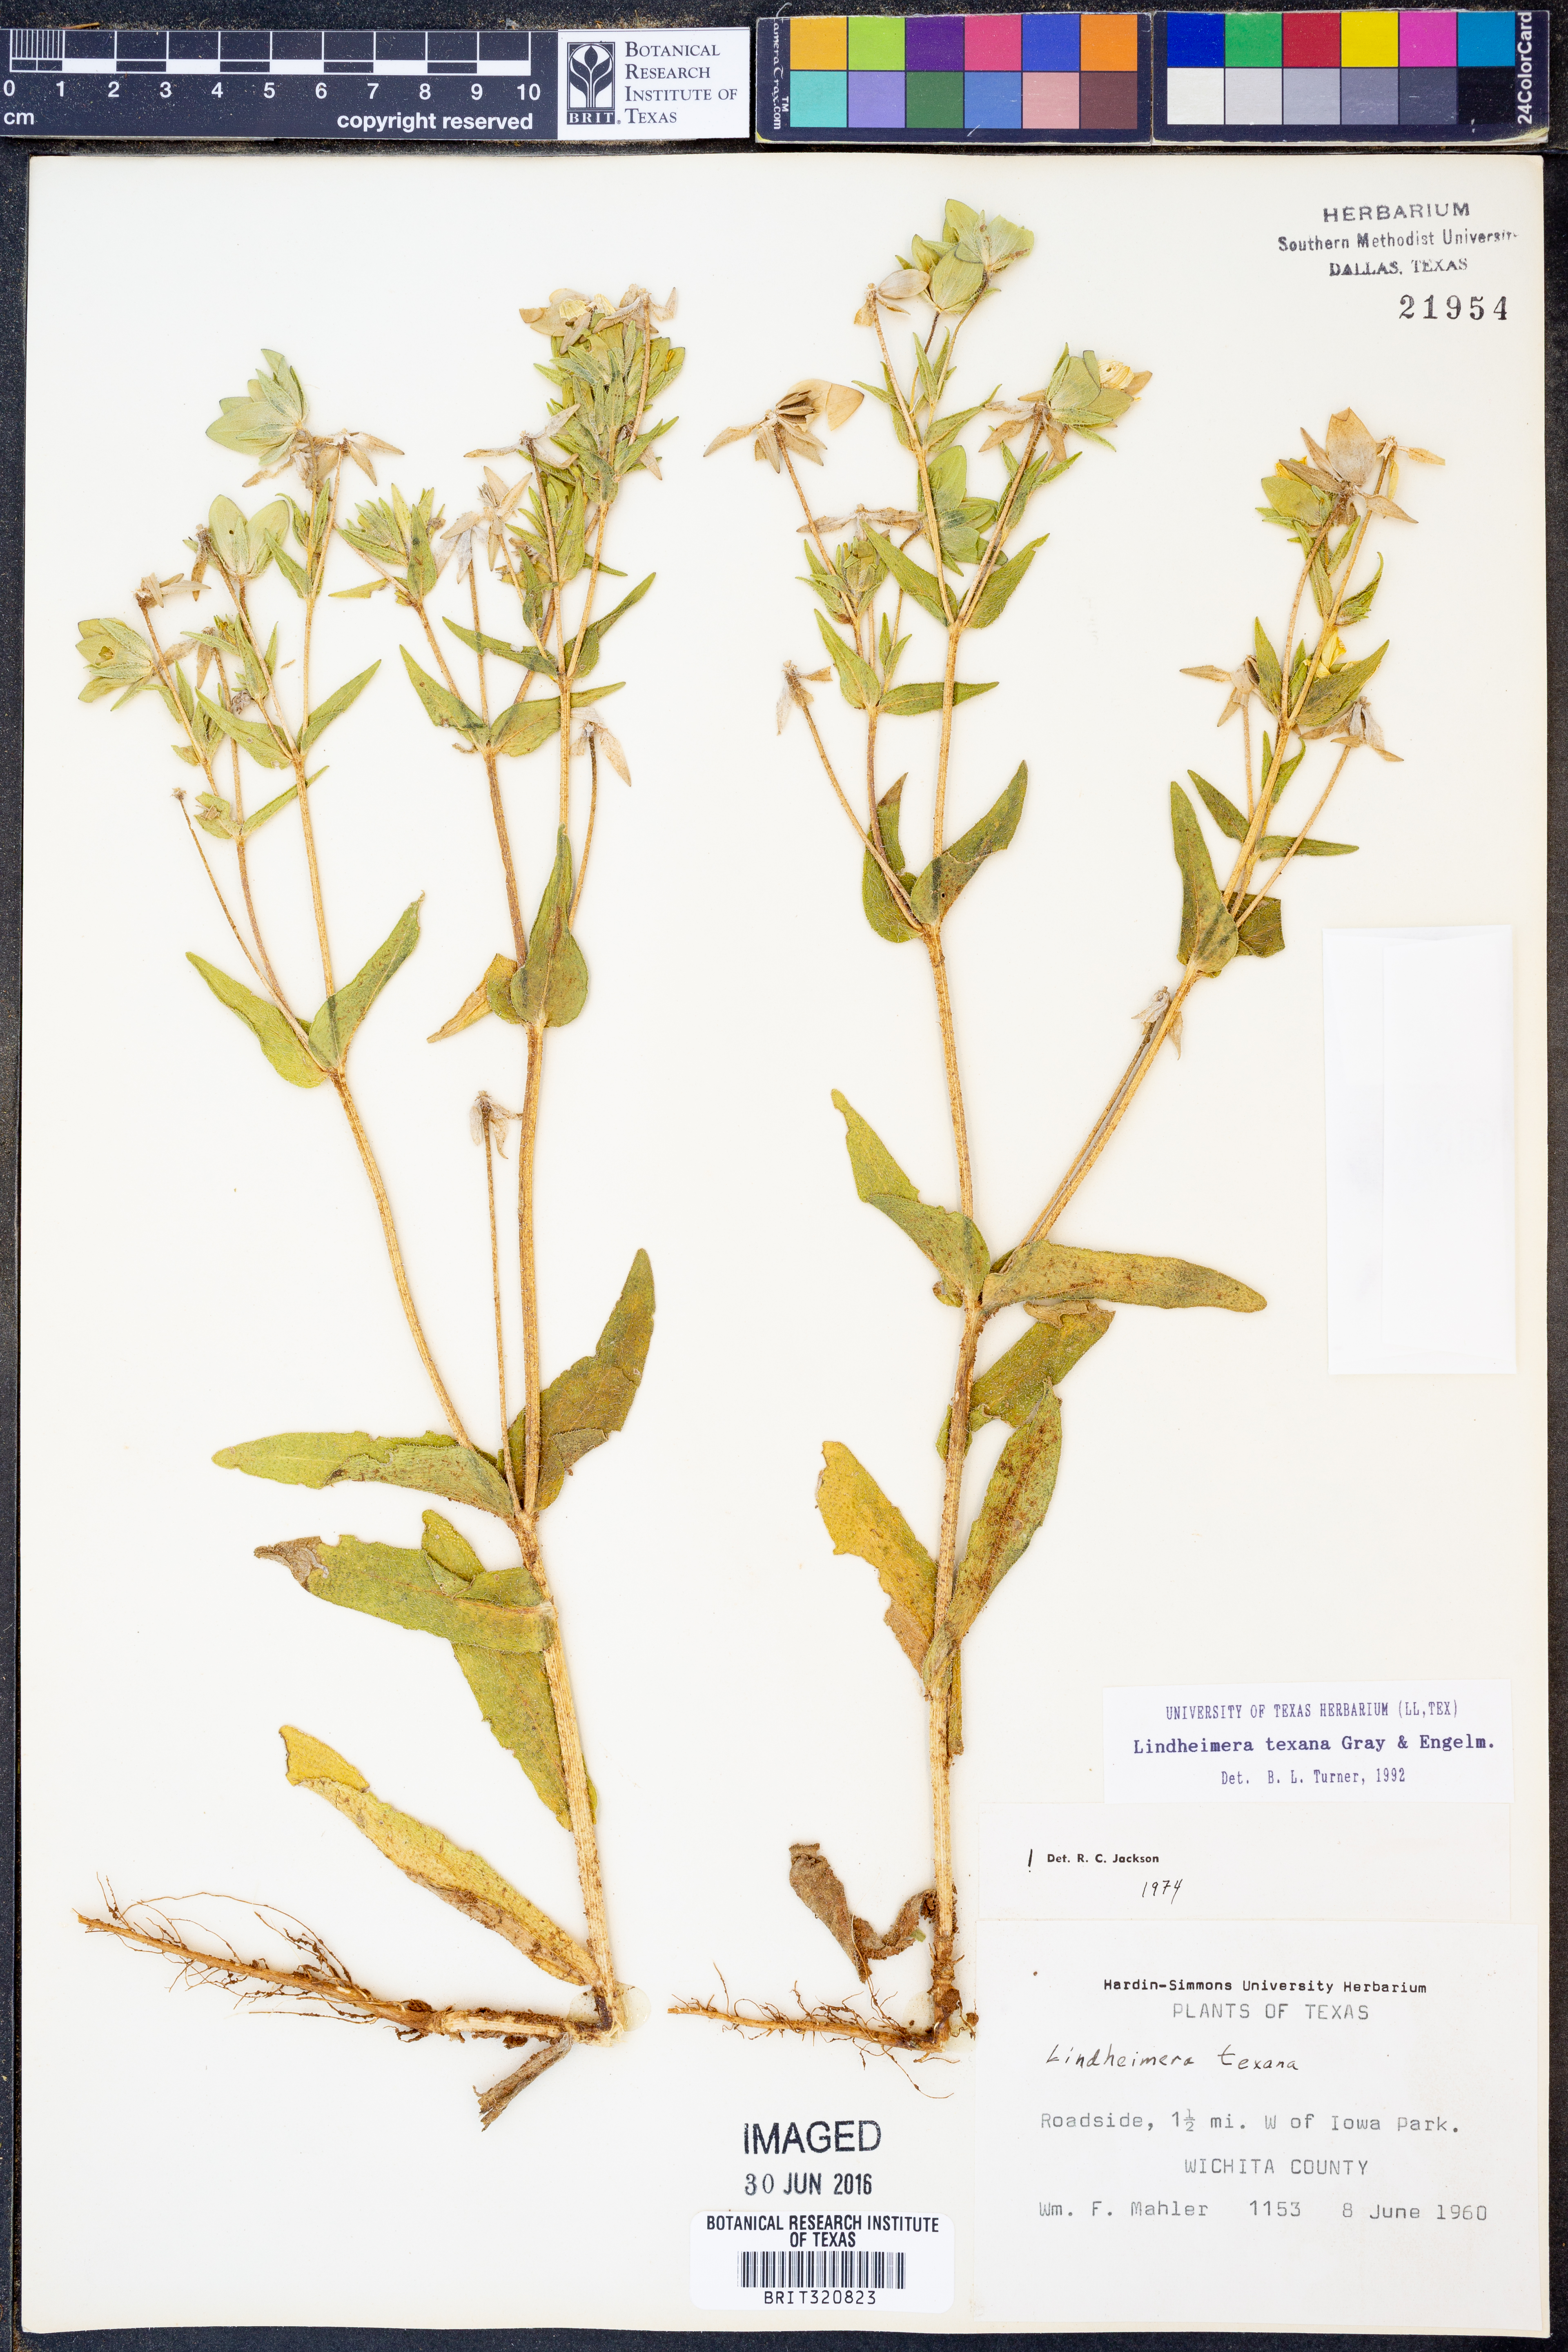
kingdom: Plantae
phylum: Tracheophyta
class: Magnoliopsida
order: Asterales
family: Asteraceae
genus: Lindheimera
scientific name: Lindheimera texana
